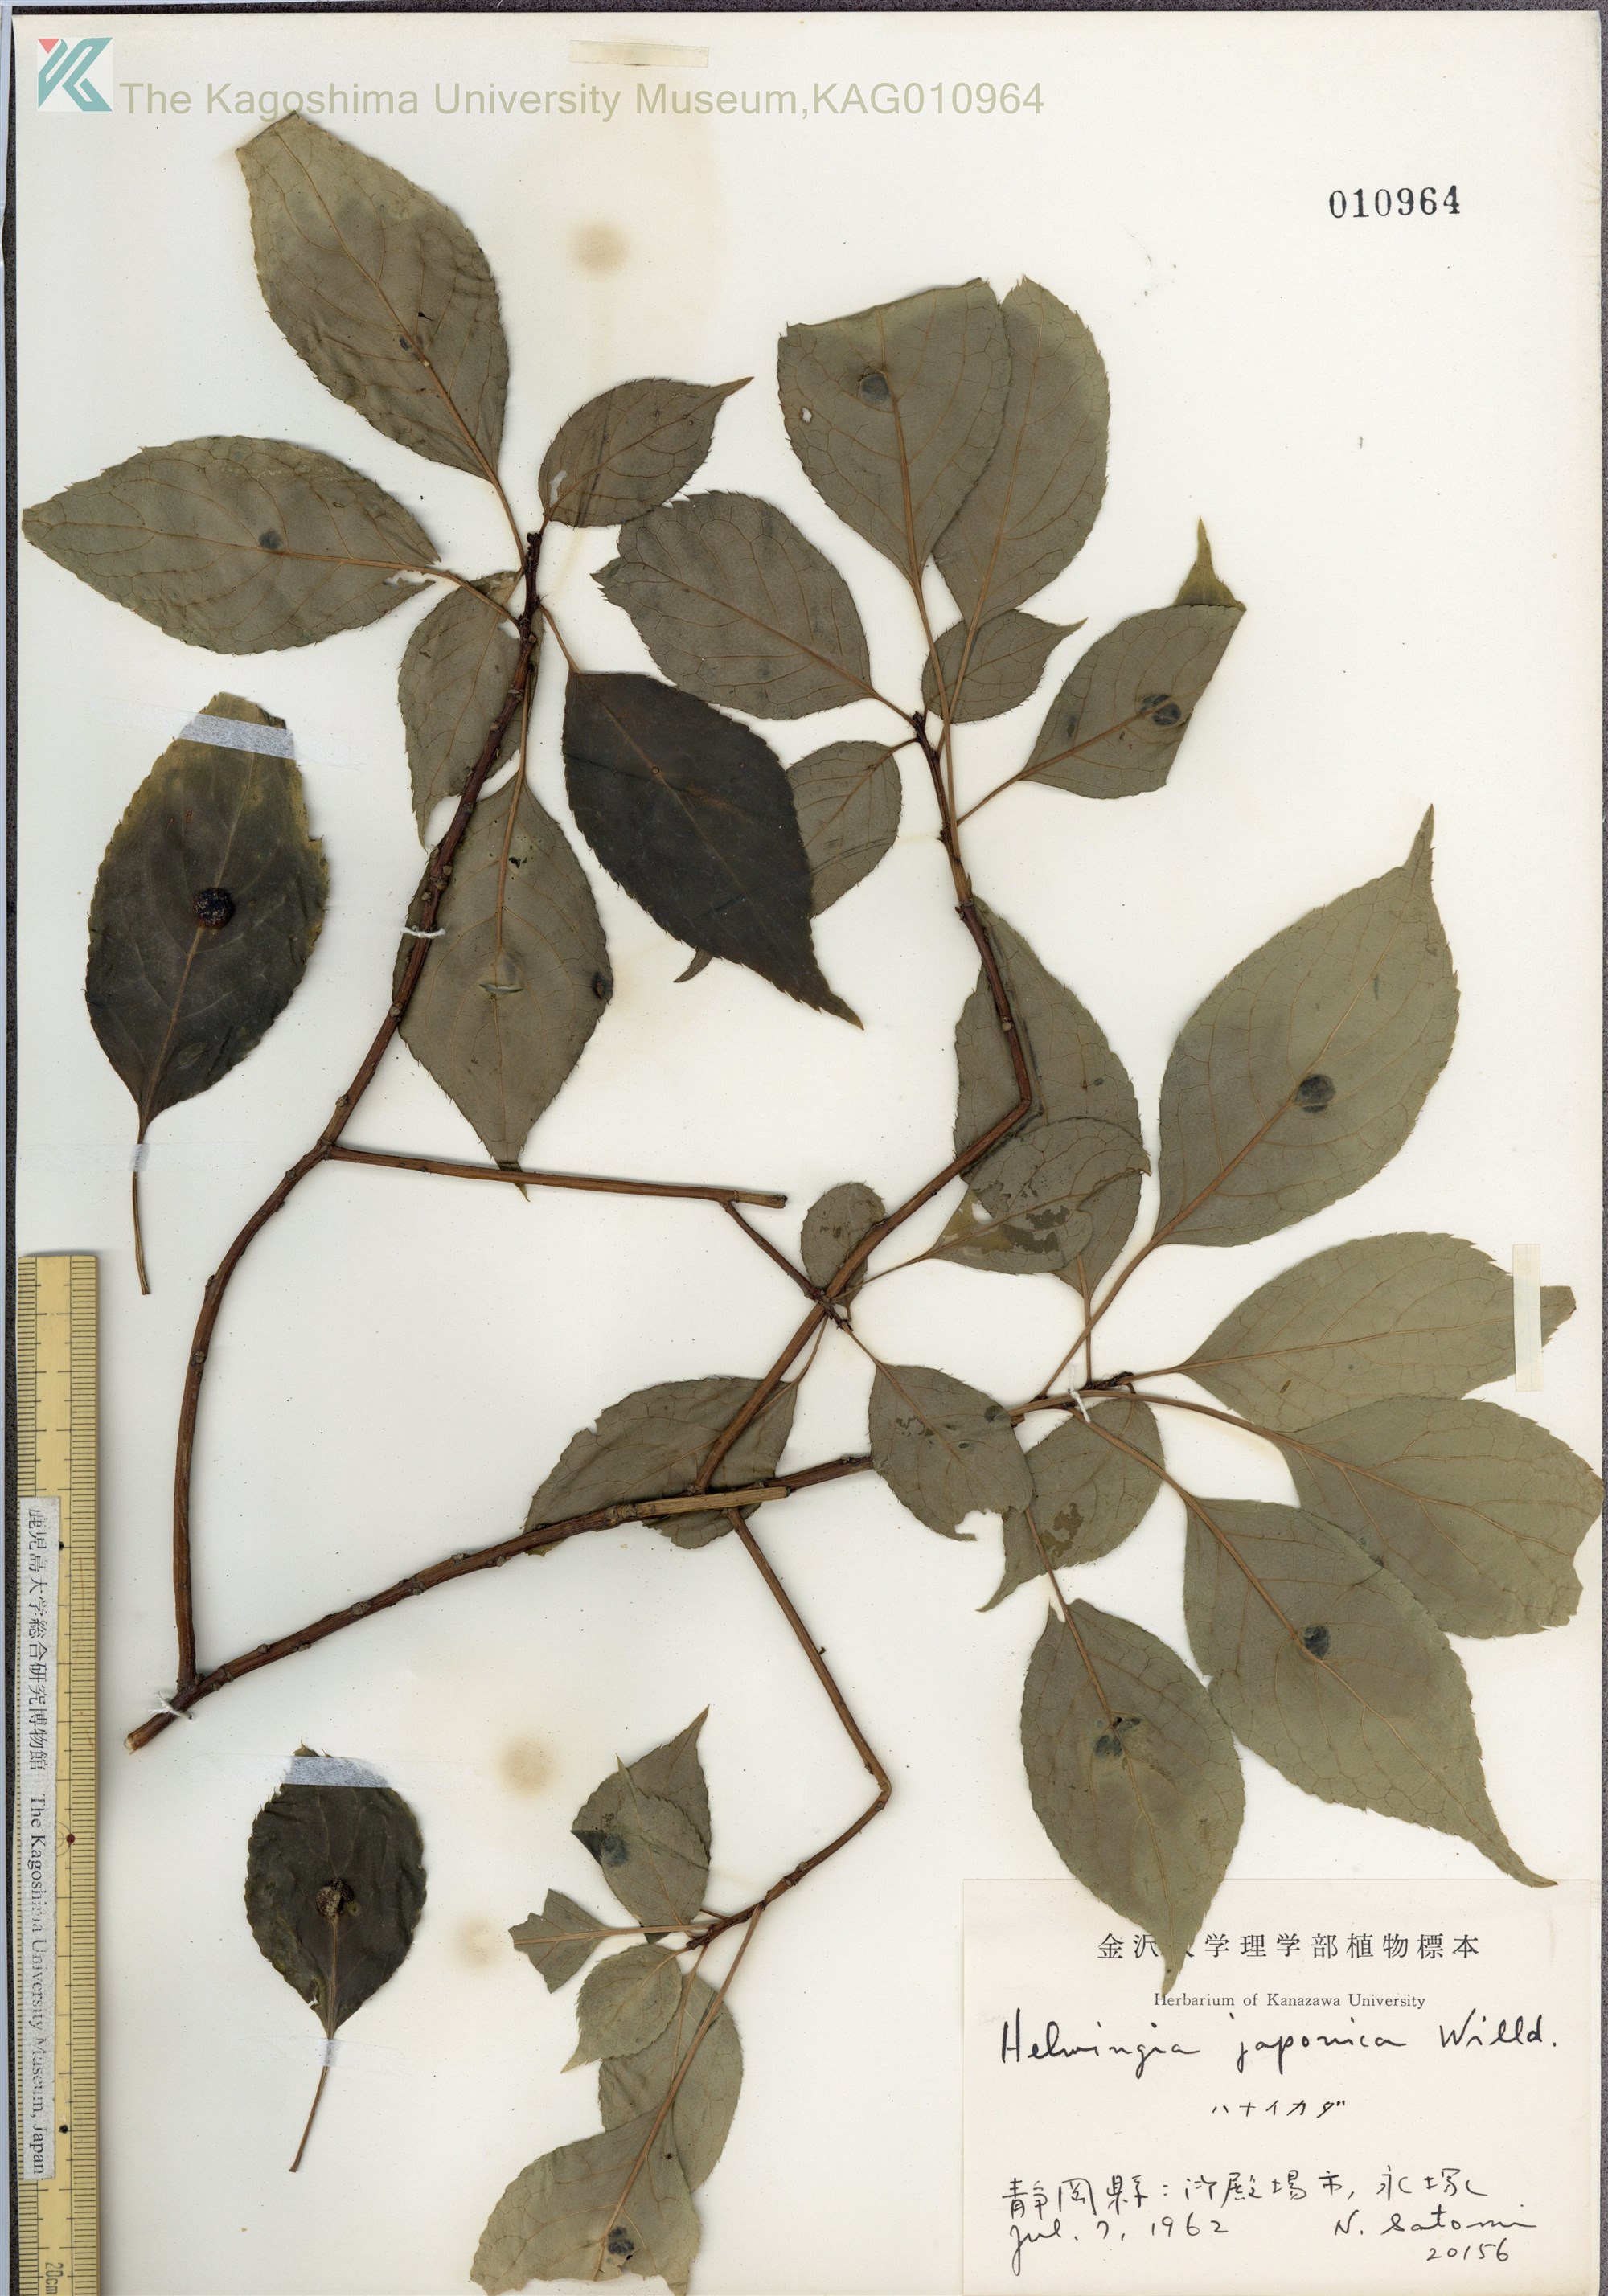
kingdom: Plantae
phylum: Tracheophyta
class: Magnoliopsida
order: Aquifoliales
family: Helwingiaceae
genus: Helwingia
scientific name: Helwingia japonica
